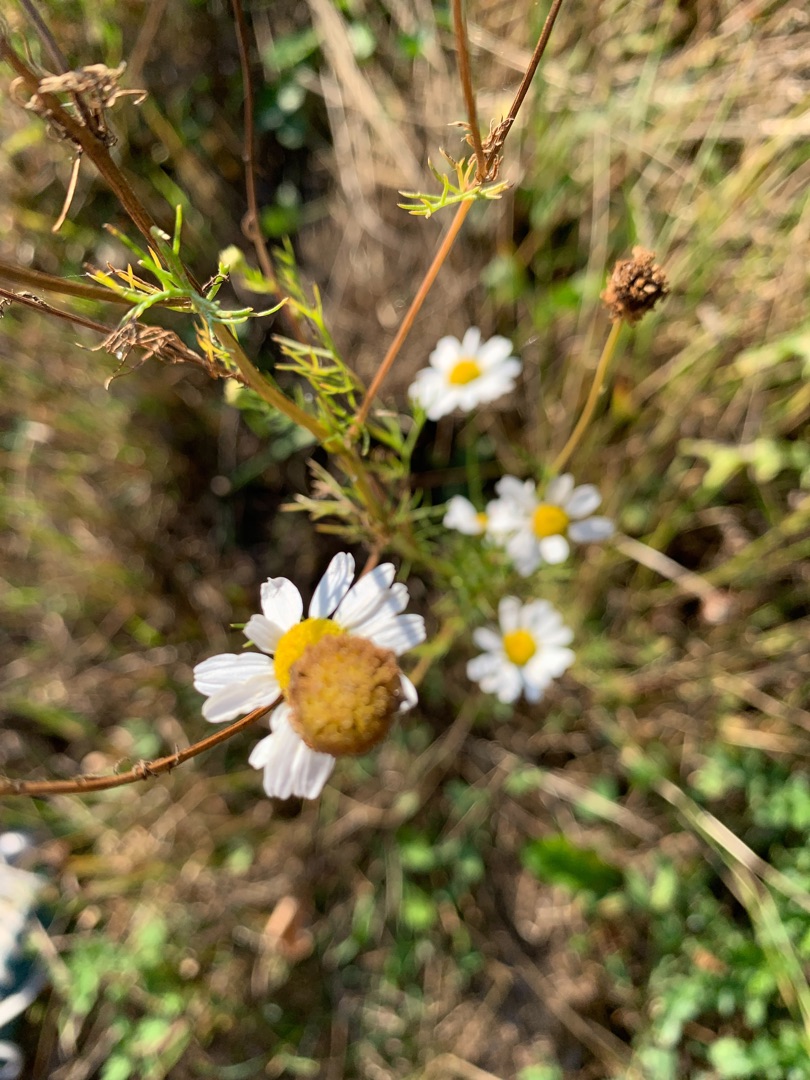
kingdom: Plantae
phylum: Tracheophyta
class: Magnoliopsida
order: Asterales
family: Asteraceae
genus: Tripleurospermum
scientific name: Tripleurospermum inodorum
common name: Lugtløs kamille
